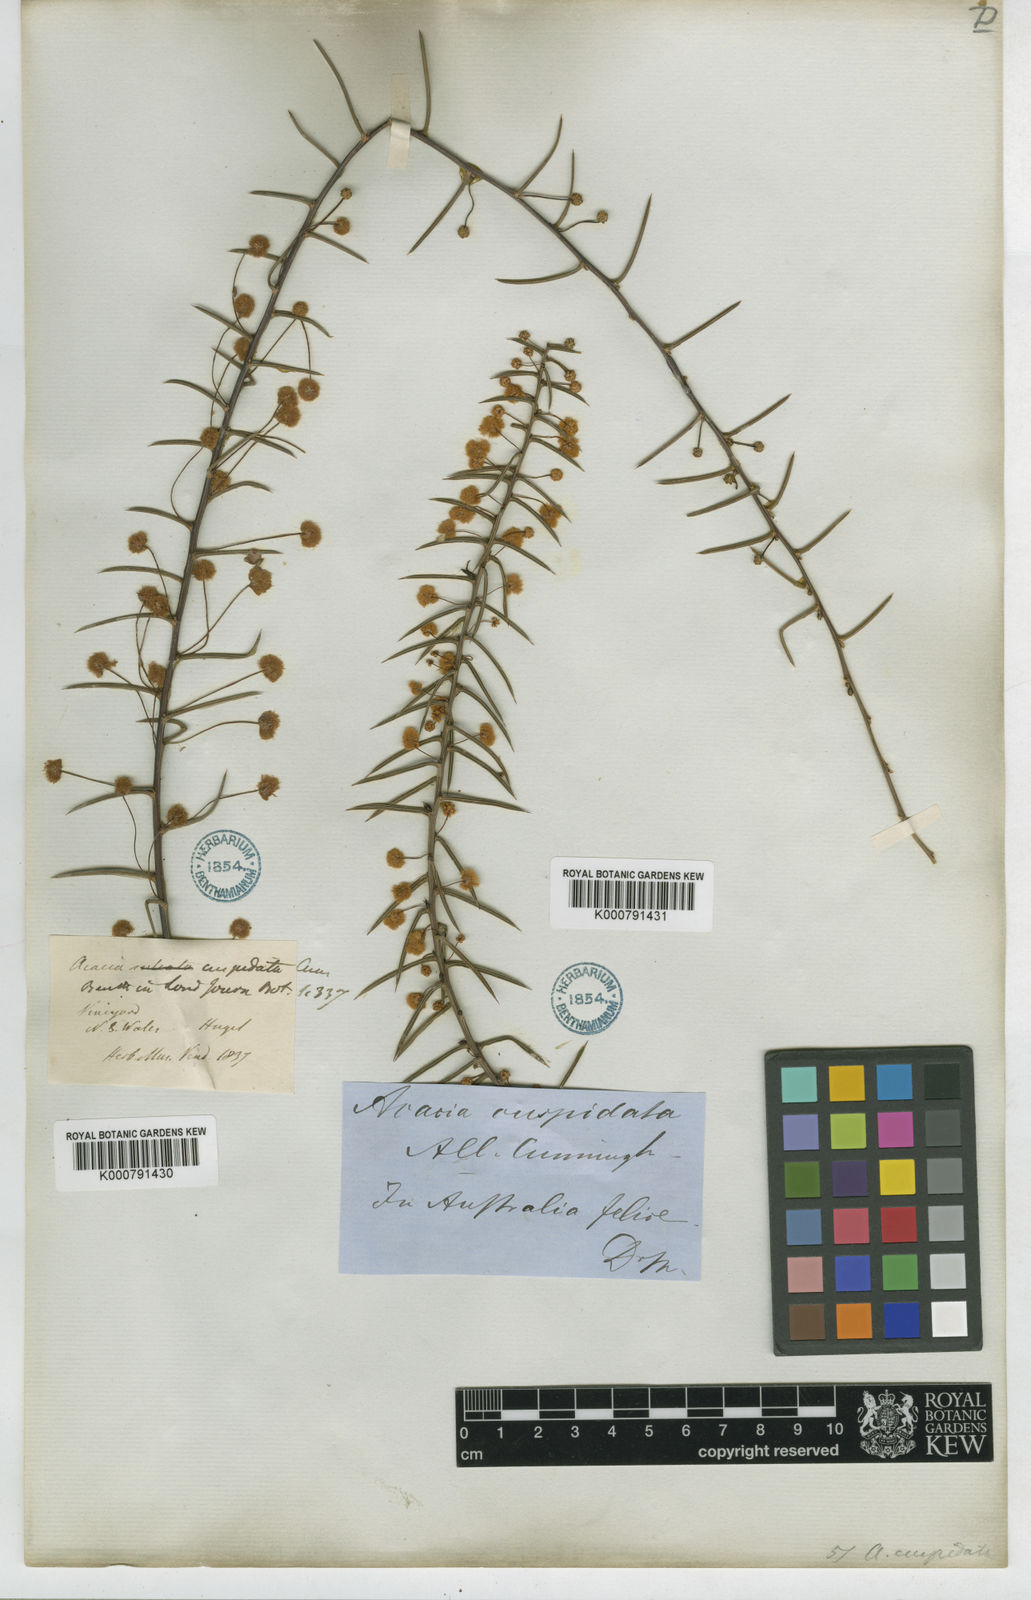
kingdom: Plantae
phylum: Tracheophyta
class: Magnoliopsida
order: Fabales
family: Fabaceae
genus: Acacia
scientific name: Acacia
